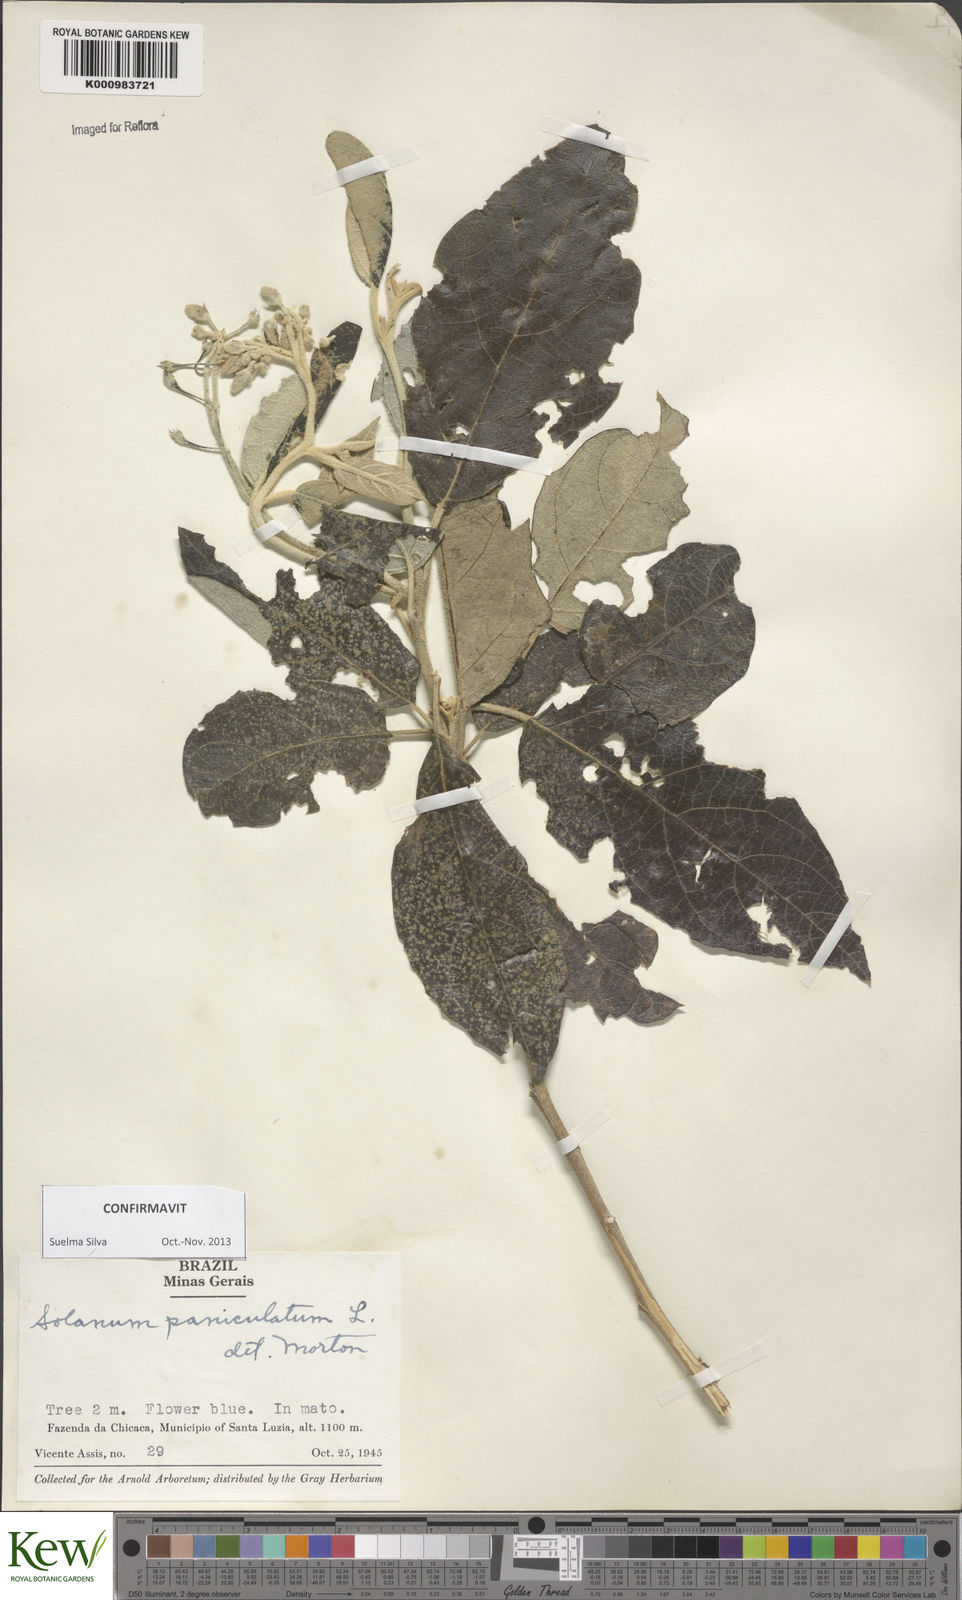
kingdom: Plantae
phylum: Tracheophyta
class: Magnoliopsida
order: Solanales
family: Solanaceae
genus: Solanum
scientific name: Solanum paniculatum
